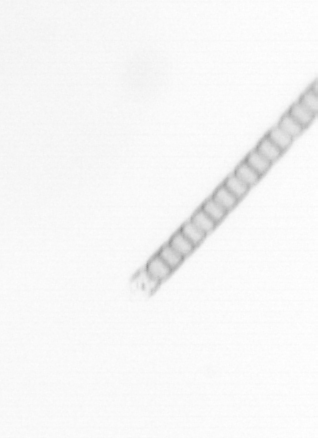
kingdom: Chromista
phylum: Ochrophyta
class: Bacillariophyceae
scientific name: Bacillariophyceae
